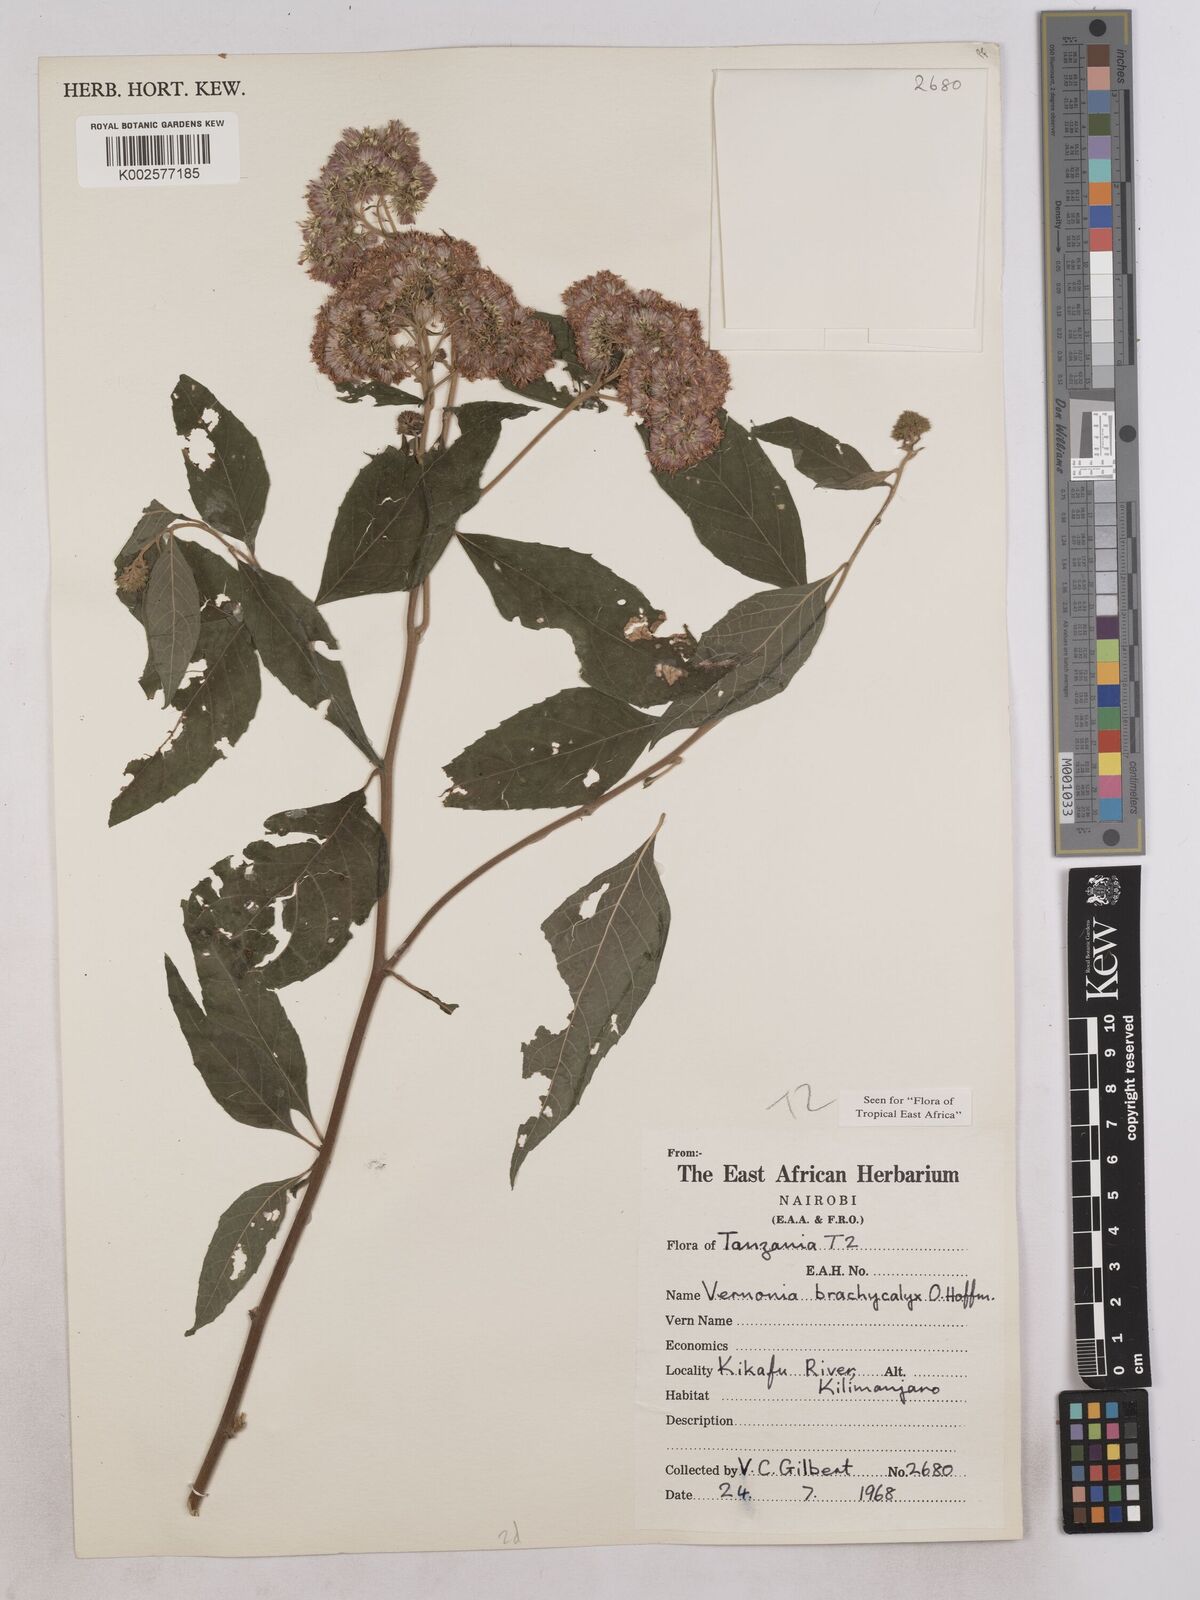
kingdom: Plantae
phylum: Tracheophyta
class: Magnoliopsida
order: Asterales
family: Asteraceae
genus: Hoffmannanthus
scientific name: Hoffmannanthus abbotianus
